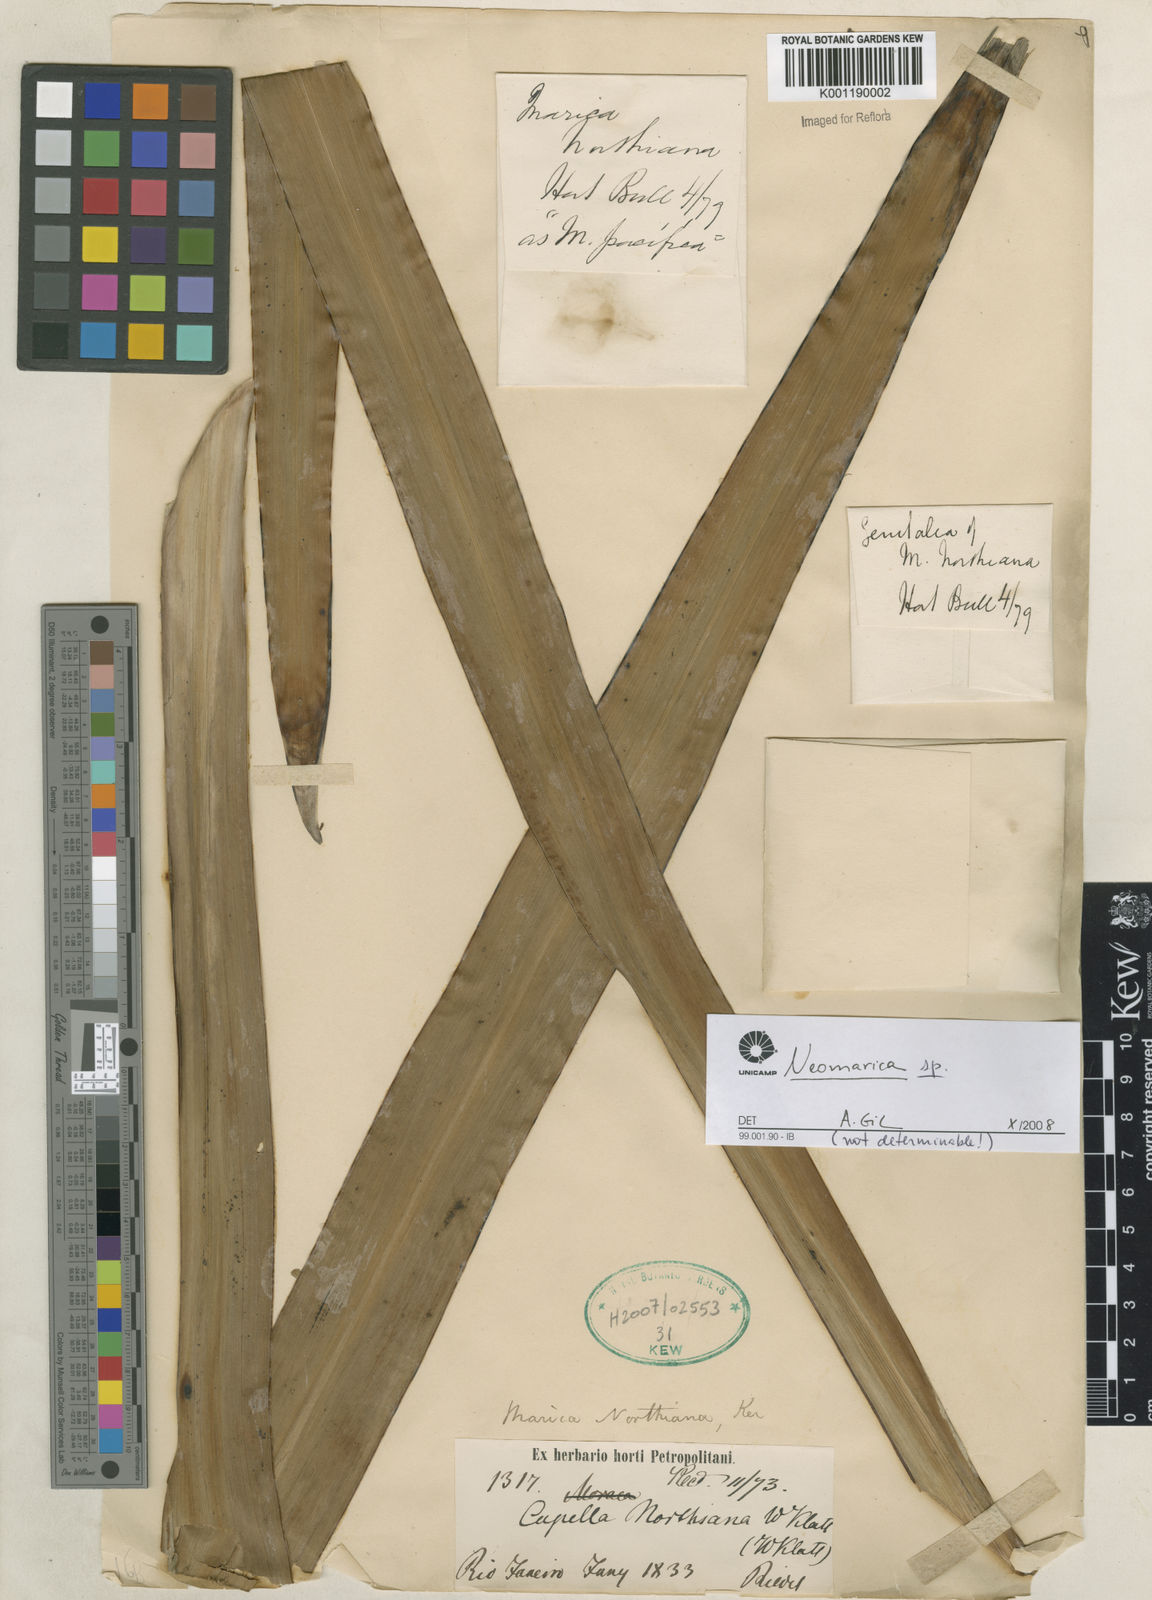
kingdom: Plantae
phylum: Tracheophyta
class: Liliopsida
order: Asparagales
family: Iridaceae
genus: Trimezia
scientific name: Trimezia
